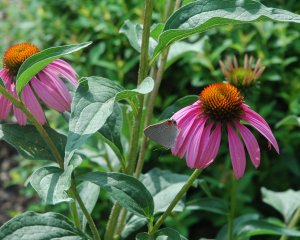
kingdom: Animalia
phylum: Arthropoda
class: Insecta
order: Lepidoptera
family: Lycaenidae
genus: Strymon
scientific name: Strymon melinus
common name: Gray Hairstreak
